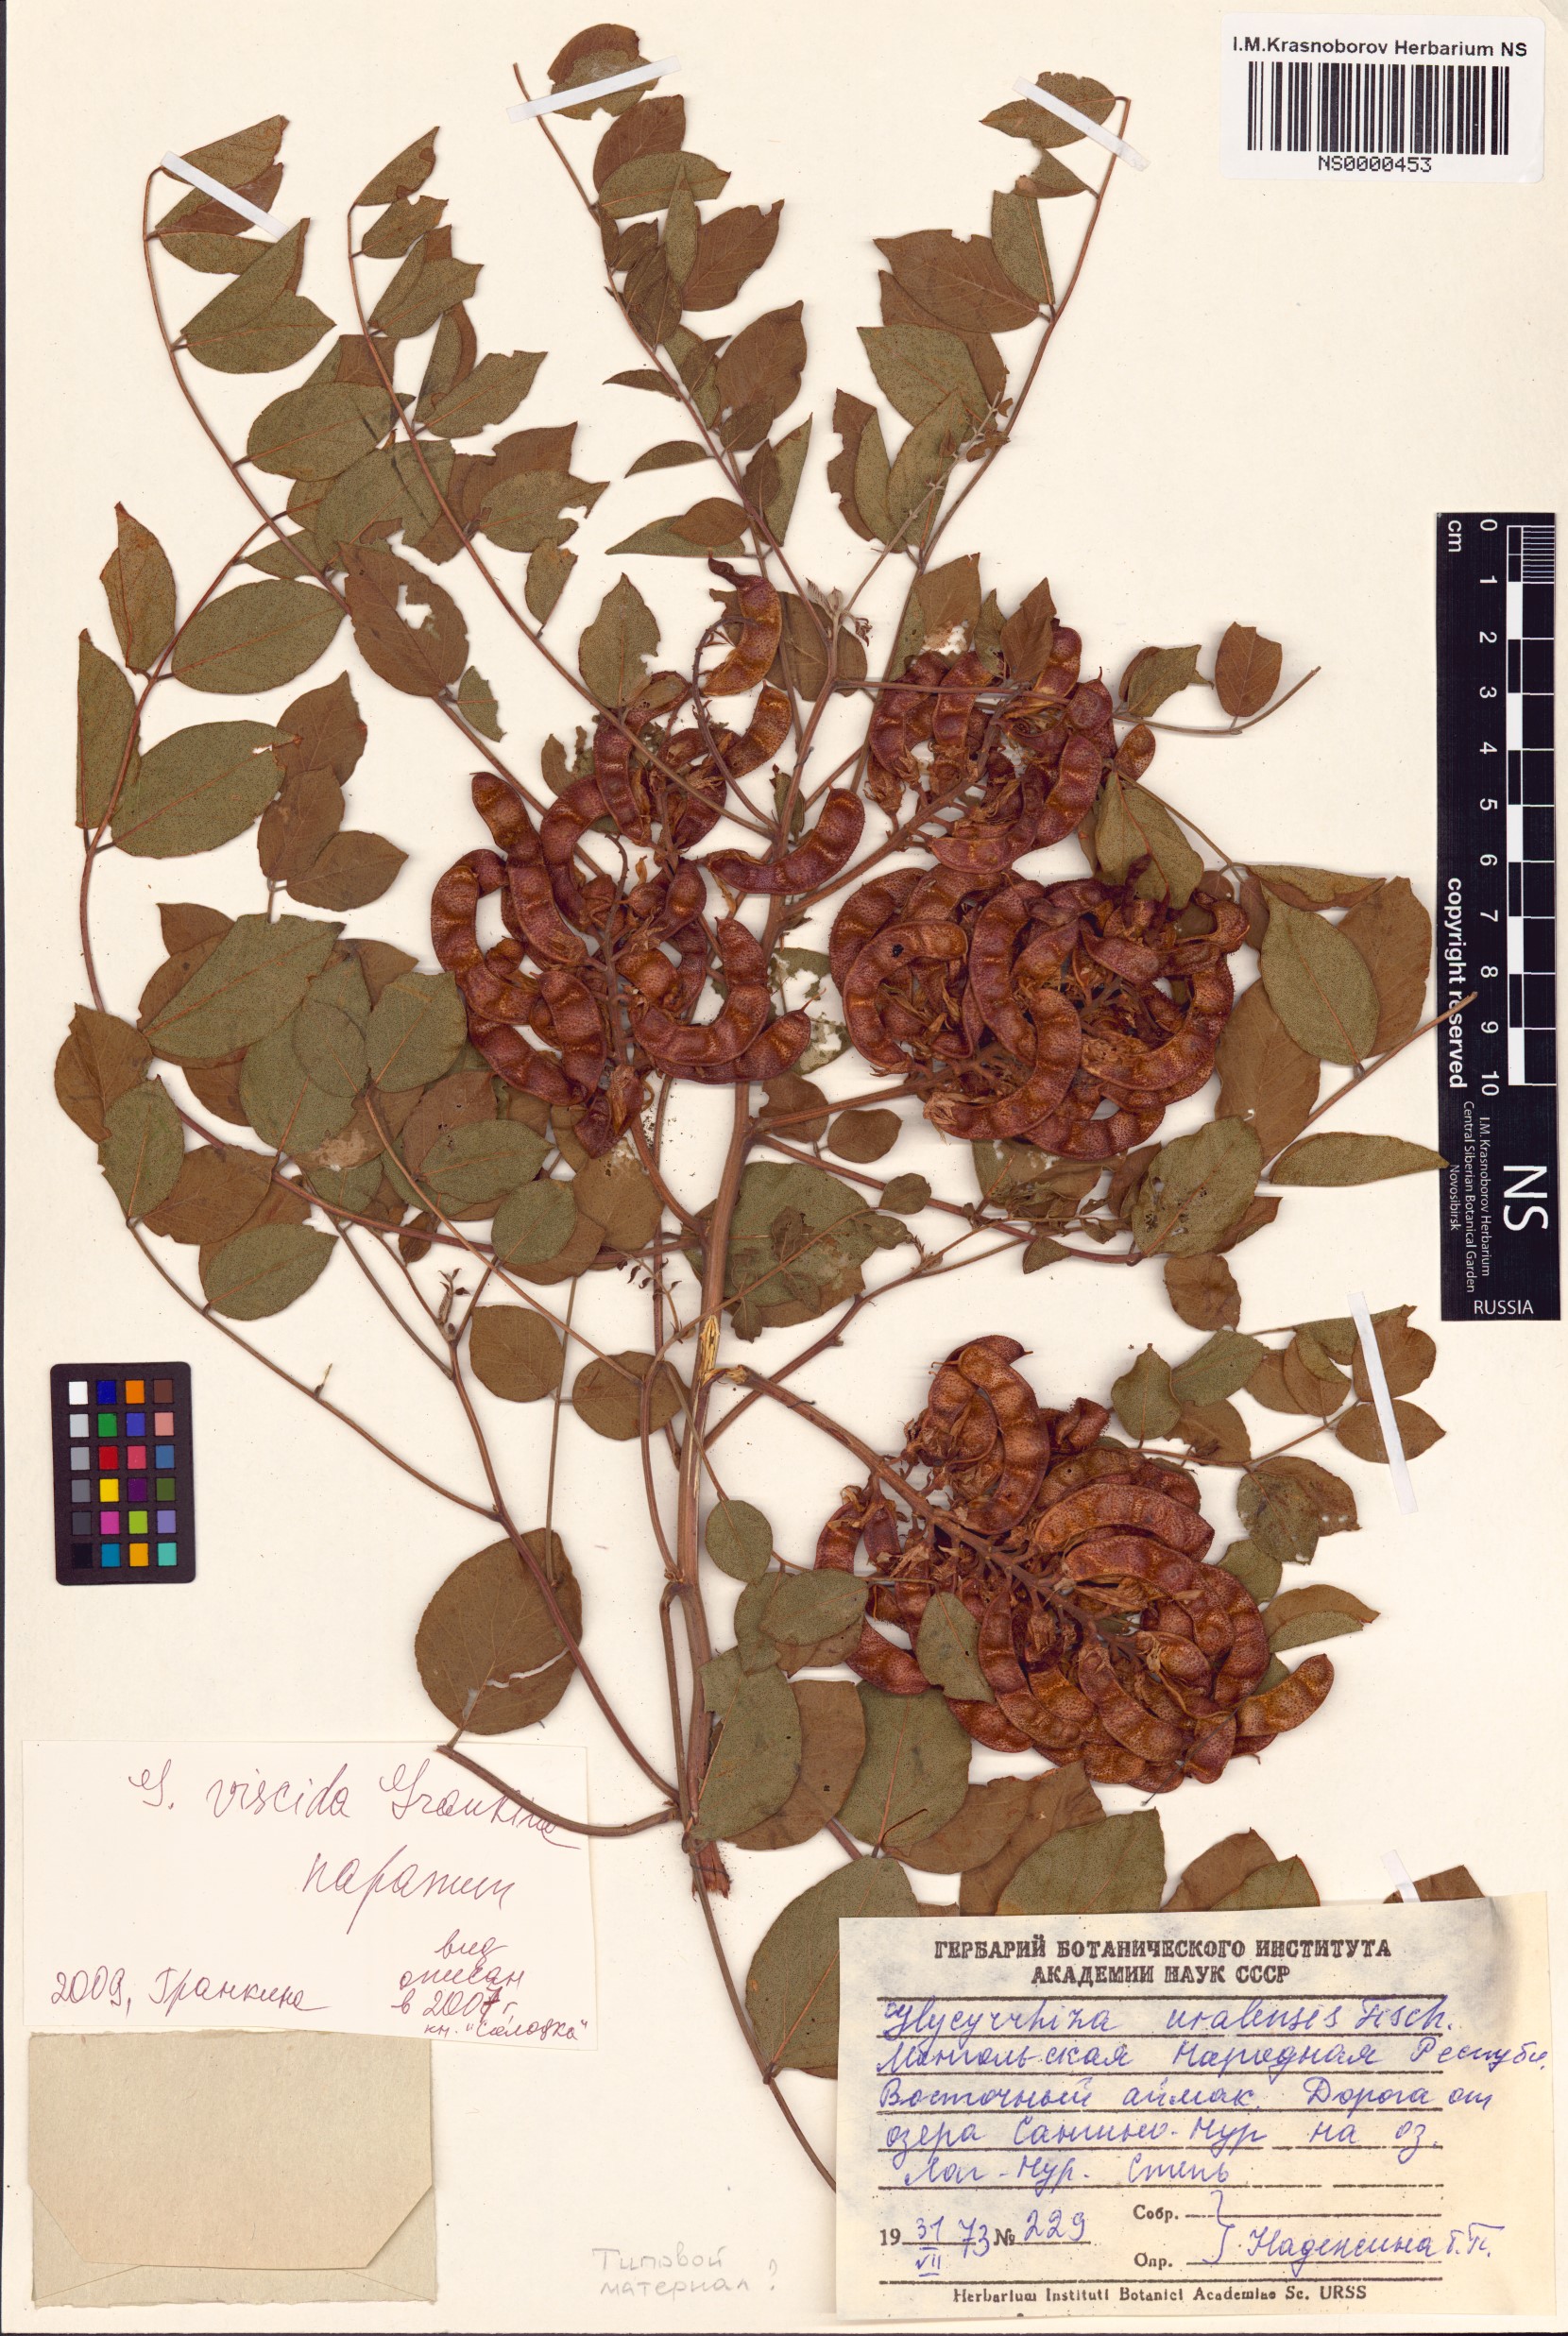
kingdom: Plantae
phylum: Tracheophyta
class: Magnoliopsida
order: Fabales
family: Fabaceae
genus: Glycyrrhiza
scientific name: Glycyrrhiza uralensis
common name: Chinese licorice
